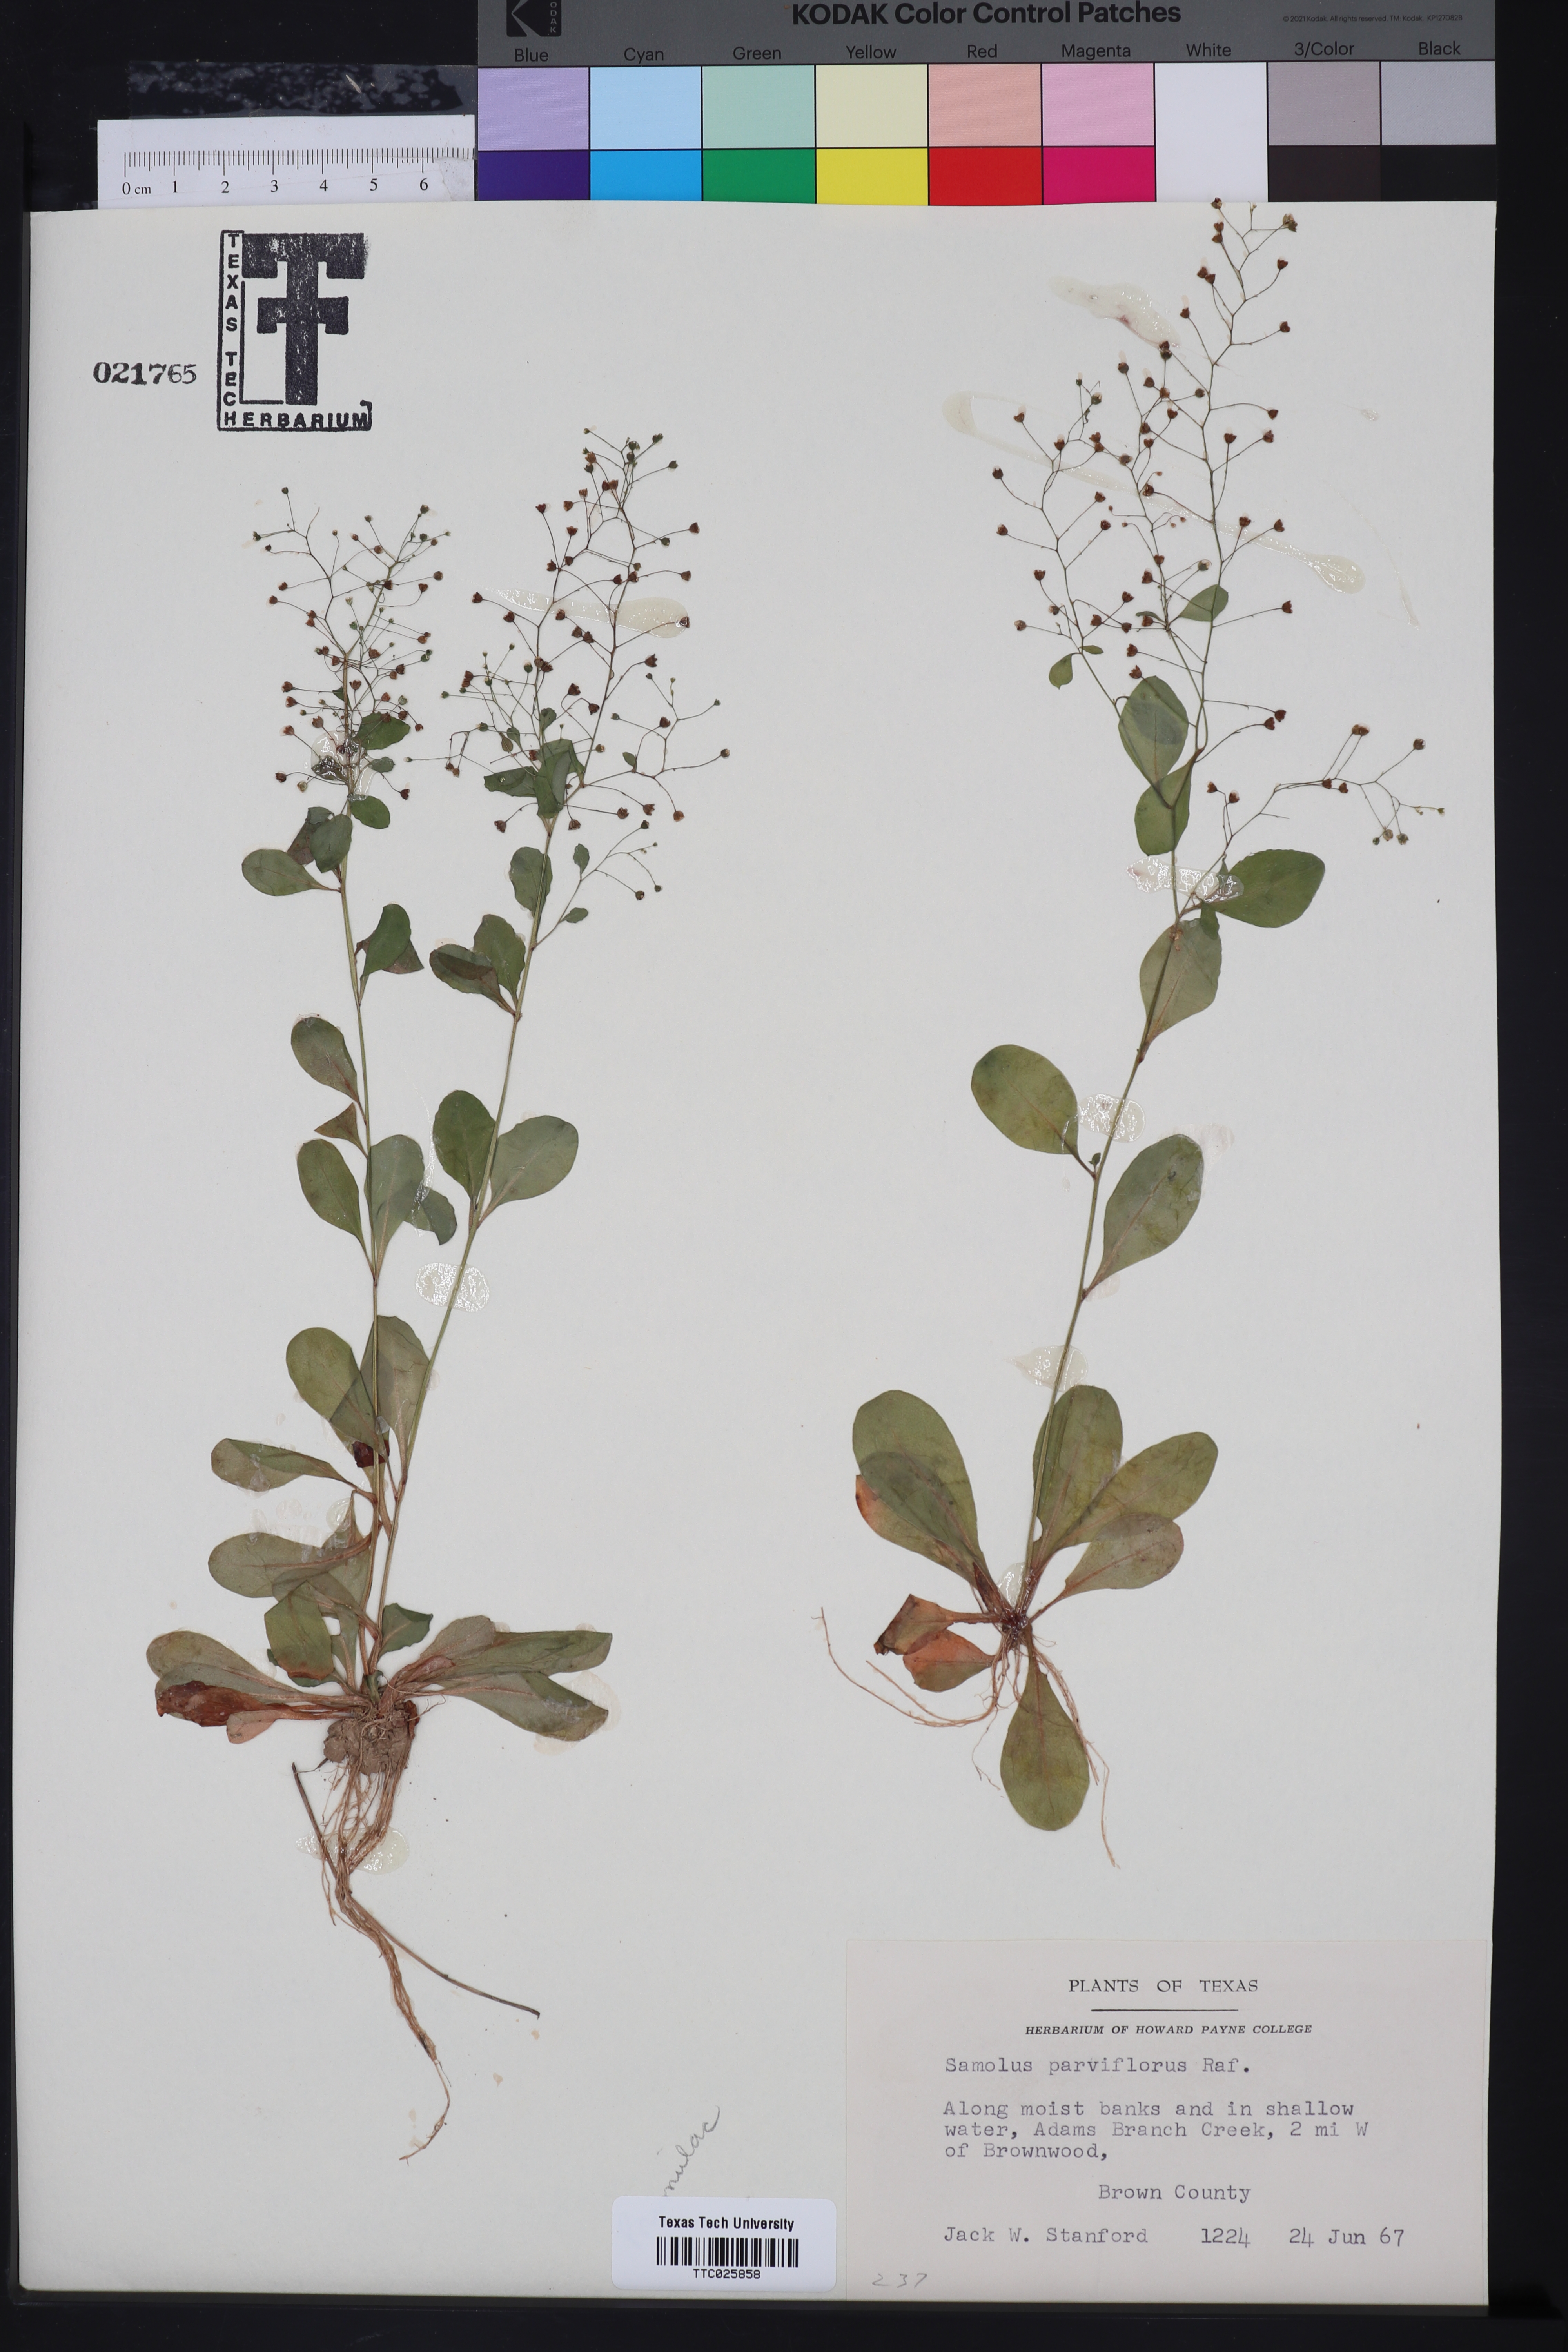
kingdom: Plantae
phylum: Tracheophyta
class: Magnoliopsida
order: Ericales
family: Primulaceae
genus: Samolus
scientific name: Samolus parviflorus
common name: False water pimpernel
